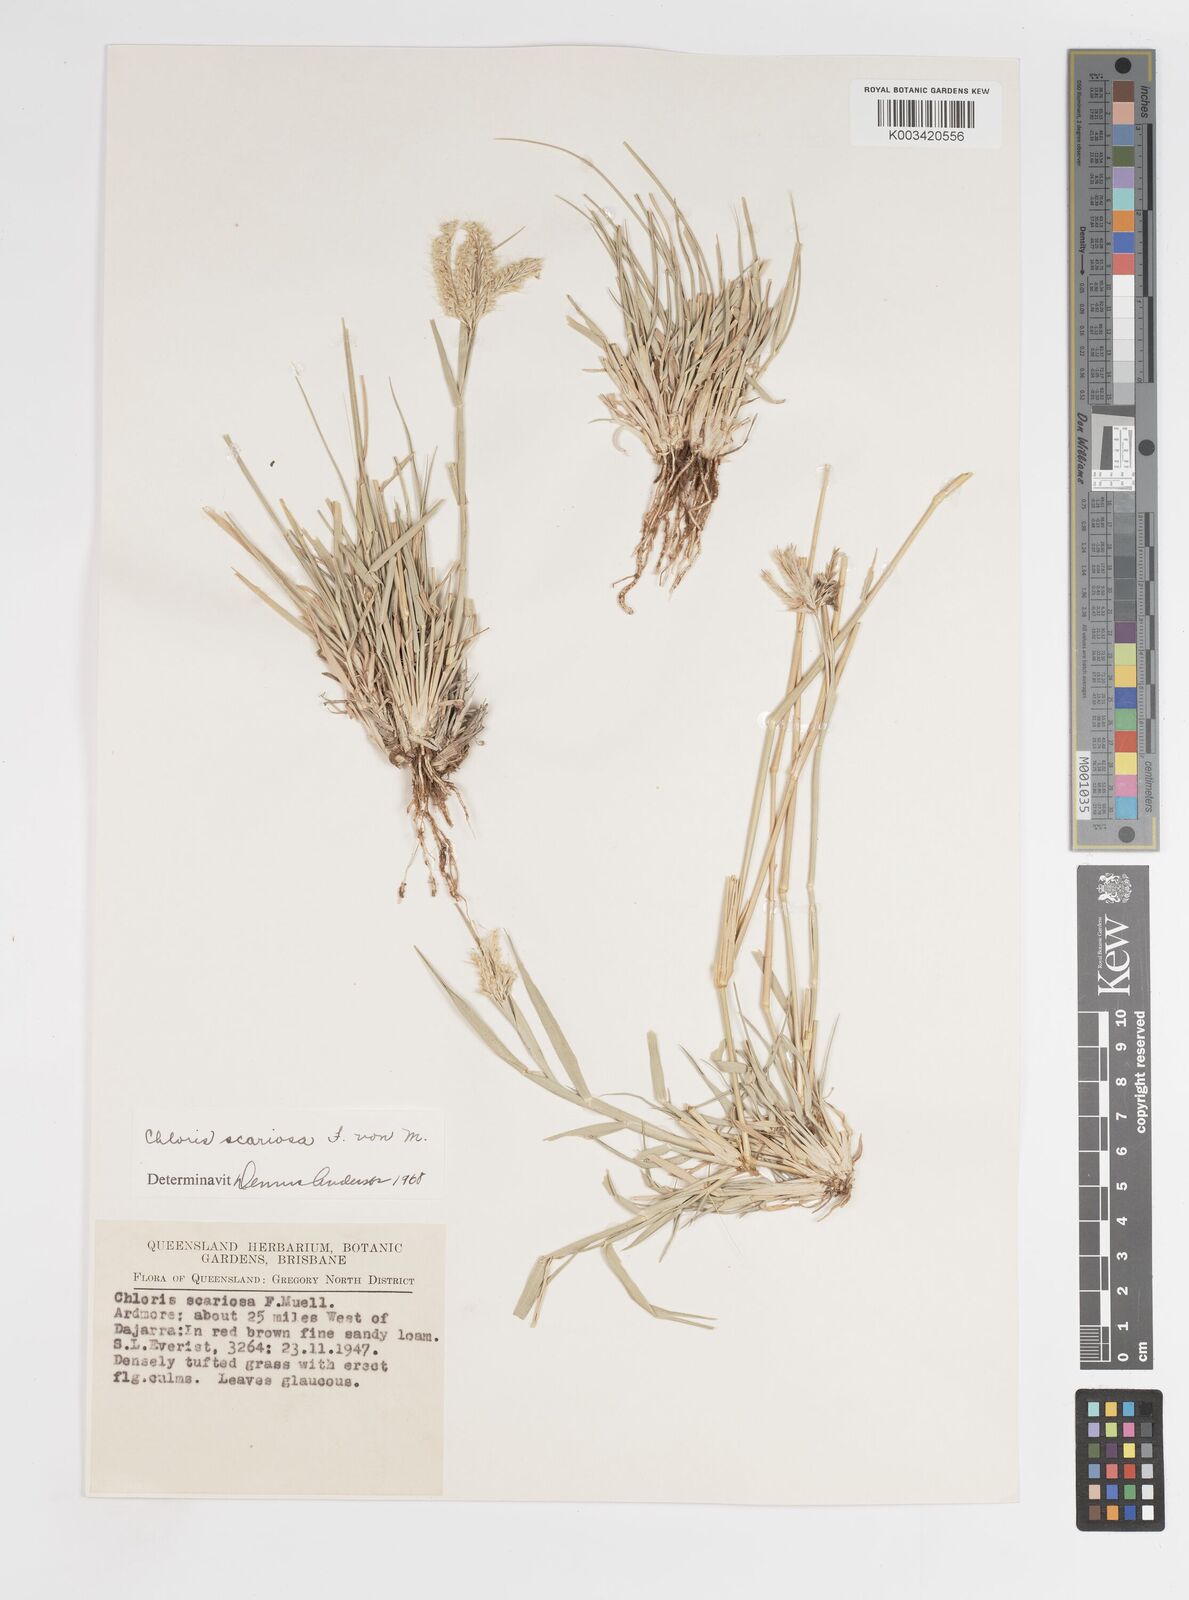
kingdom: Plantae
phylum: Tracheophyta
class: Liliopsida
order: Poales
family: Poaceae
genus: Oxychloris
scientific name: Oxychloris scariosa
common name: Winged windmill grass
